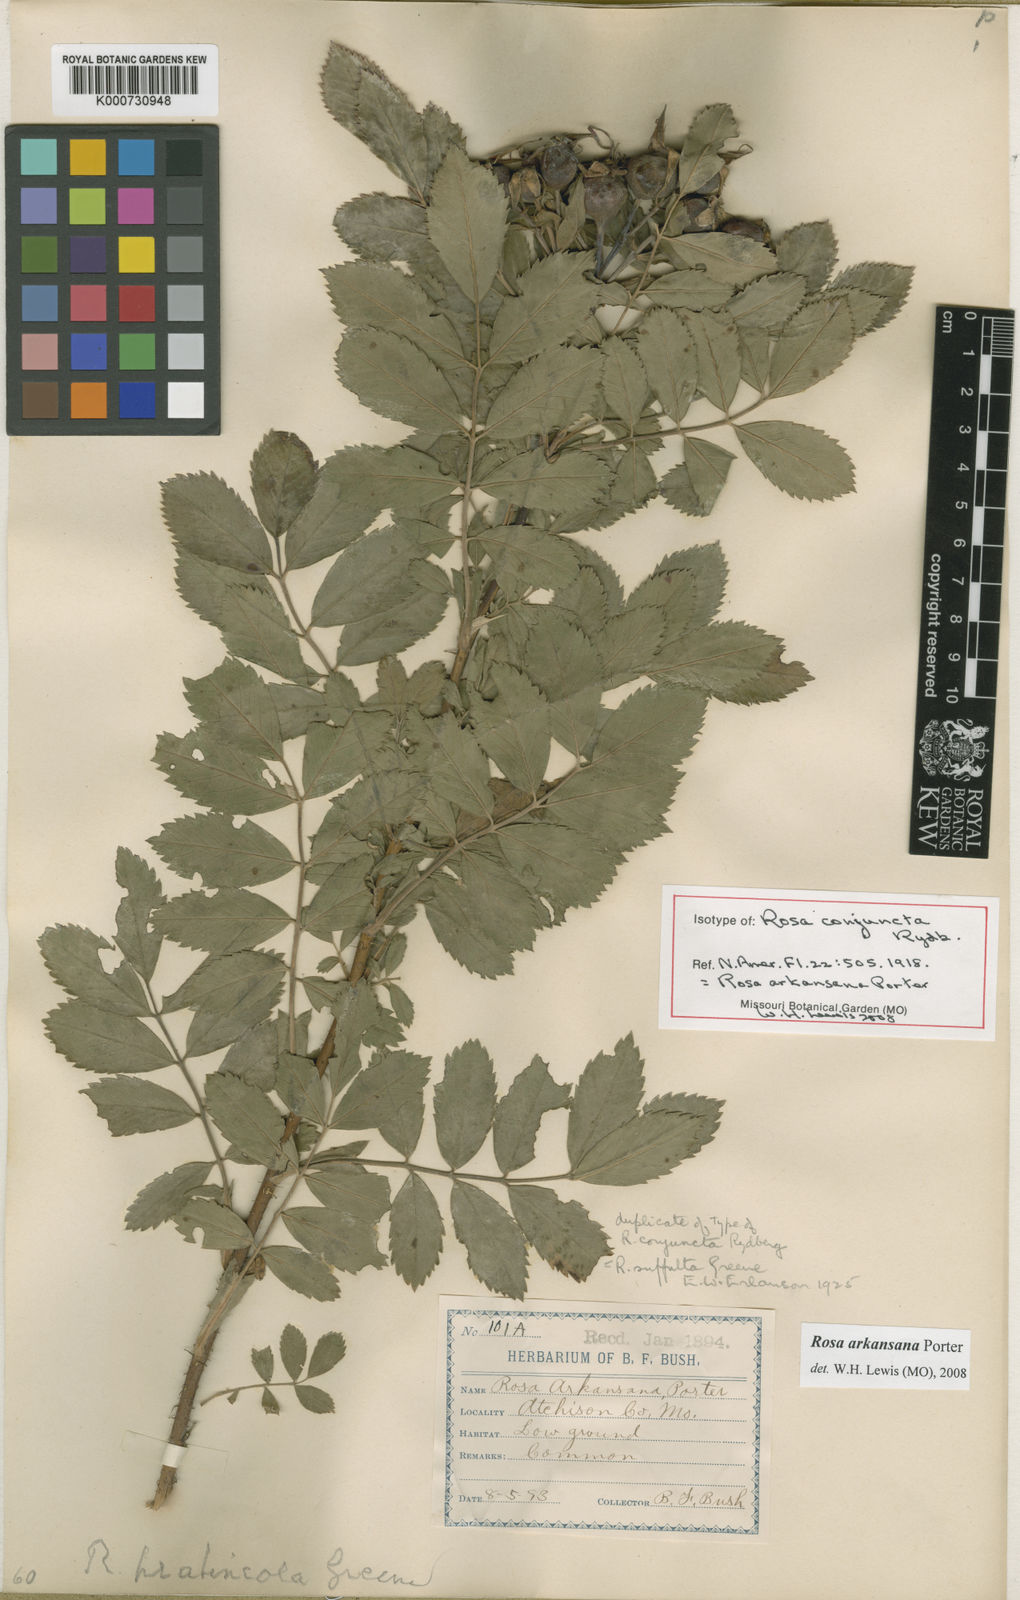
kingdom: Plantae
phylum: Tracheophyta
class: Magnoliopsida
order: Rosales
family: Rosaceae
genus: Rosa
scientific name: Rosa polyanthema
